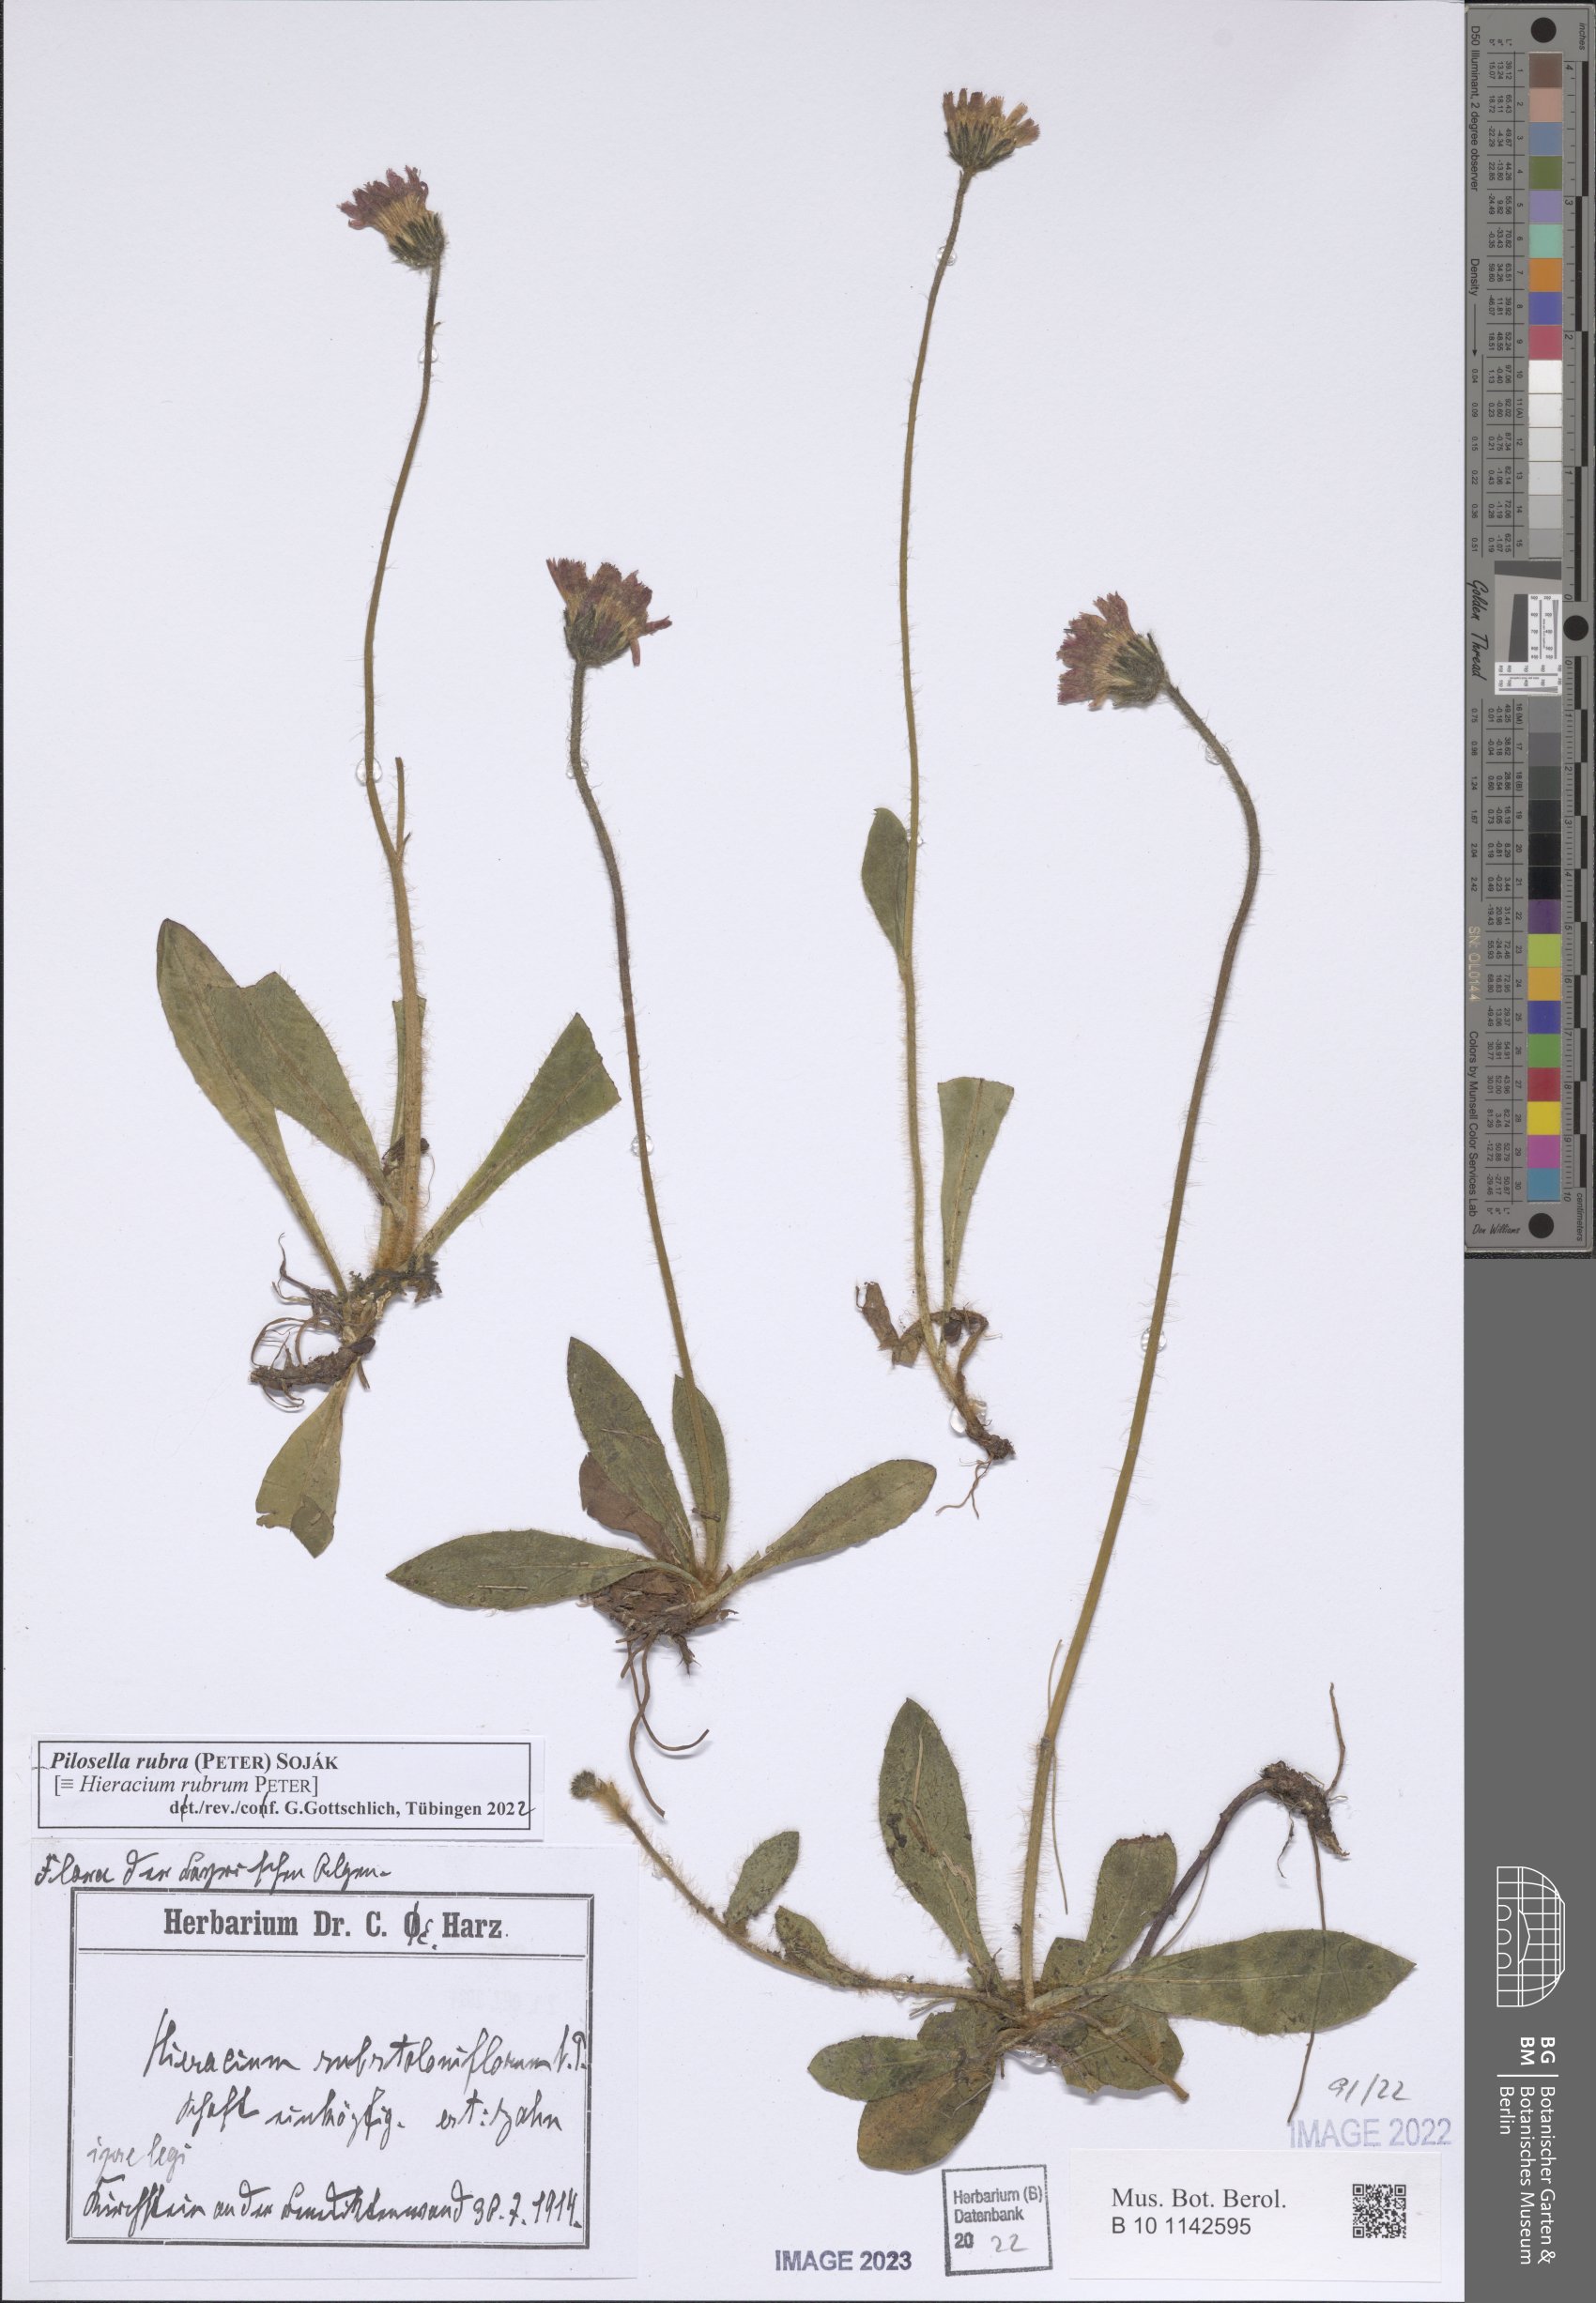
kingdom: Plantae
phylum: Tracheophyta
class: Magnoliopsida
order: Asterales
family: Asteraceae
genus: Pilosella
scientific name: Pilosella rubra
